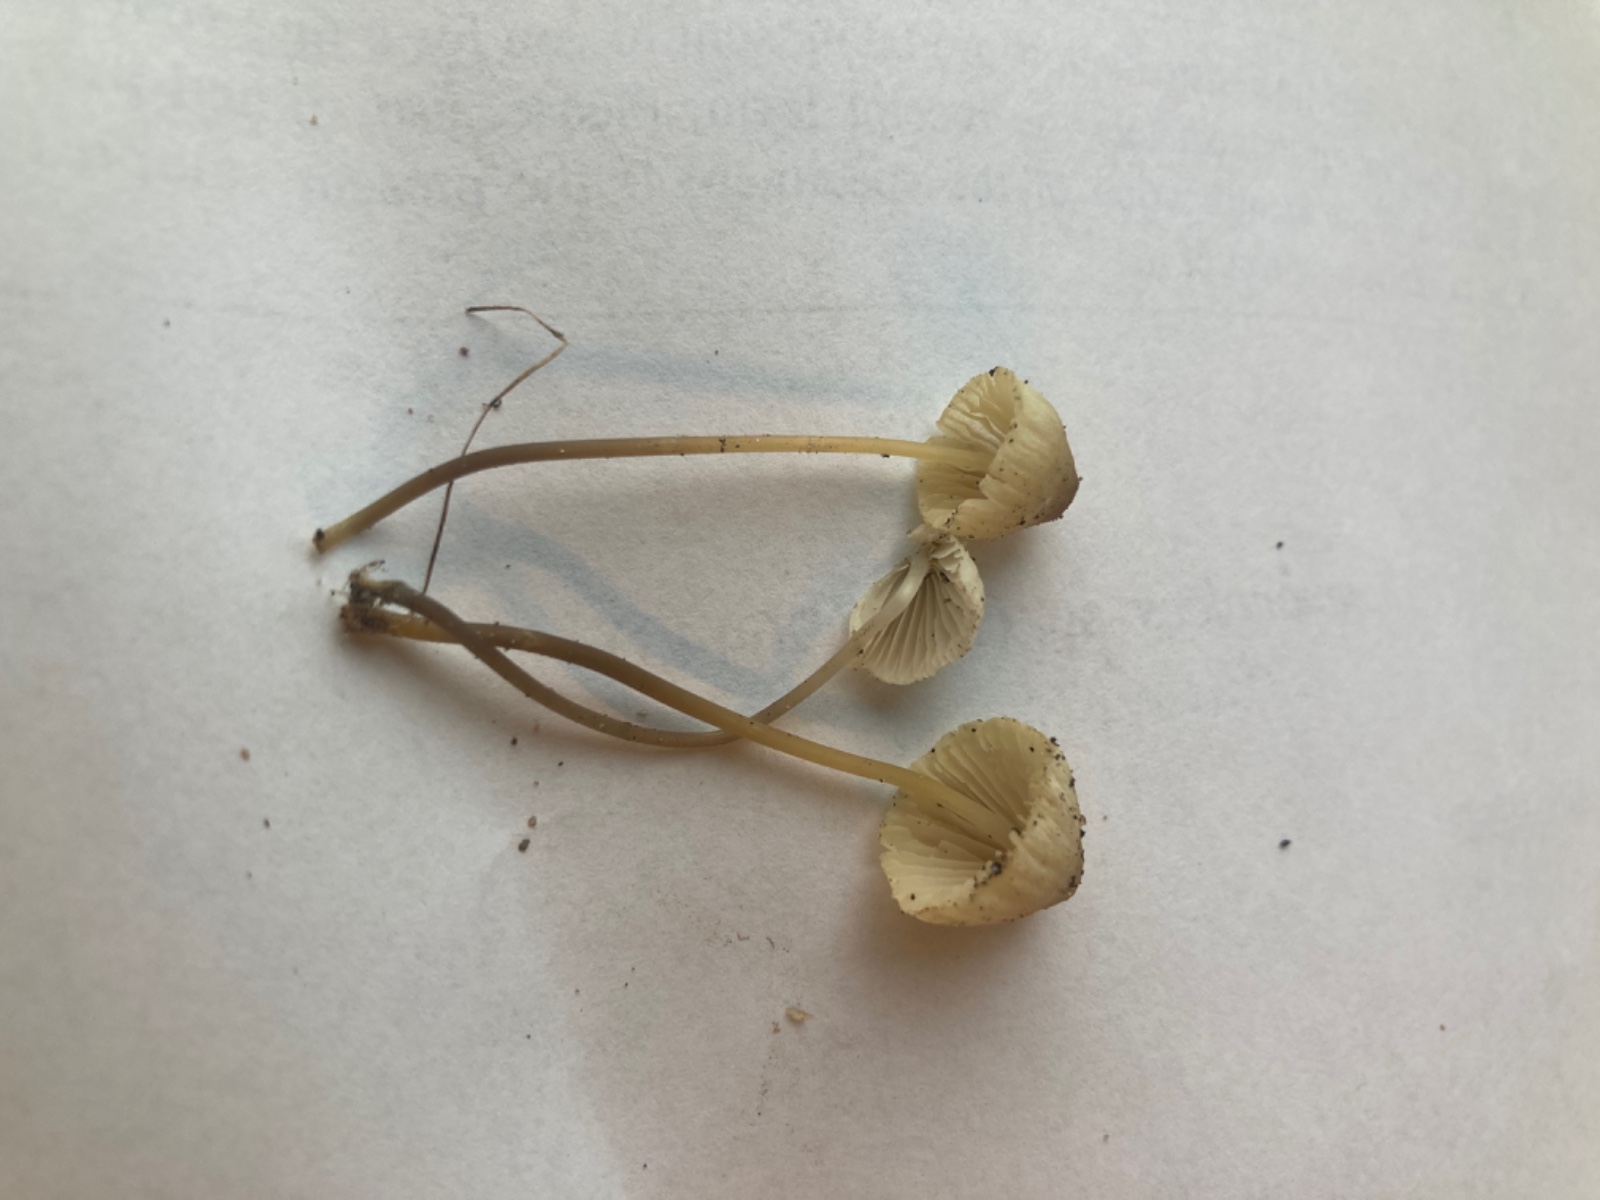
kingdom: Fungi
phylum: Basidiomycota
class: Agaricomycetes
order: Agaricales
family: Mycenaceae
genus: Mycena
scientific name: Mycena xantholeuca
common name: cremehvid huesvamp
